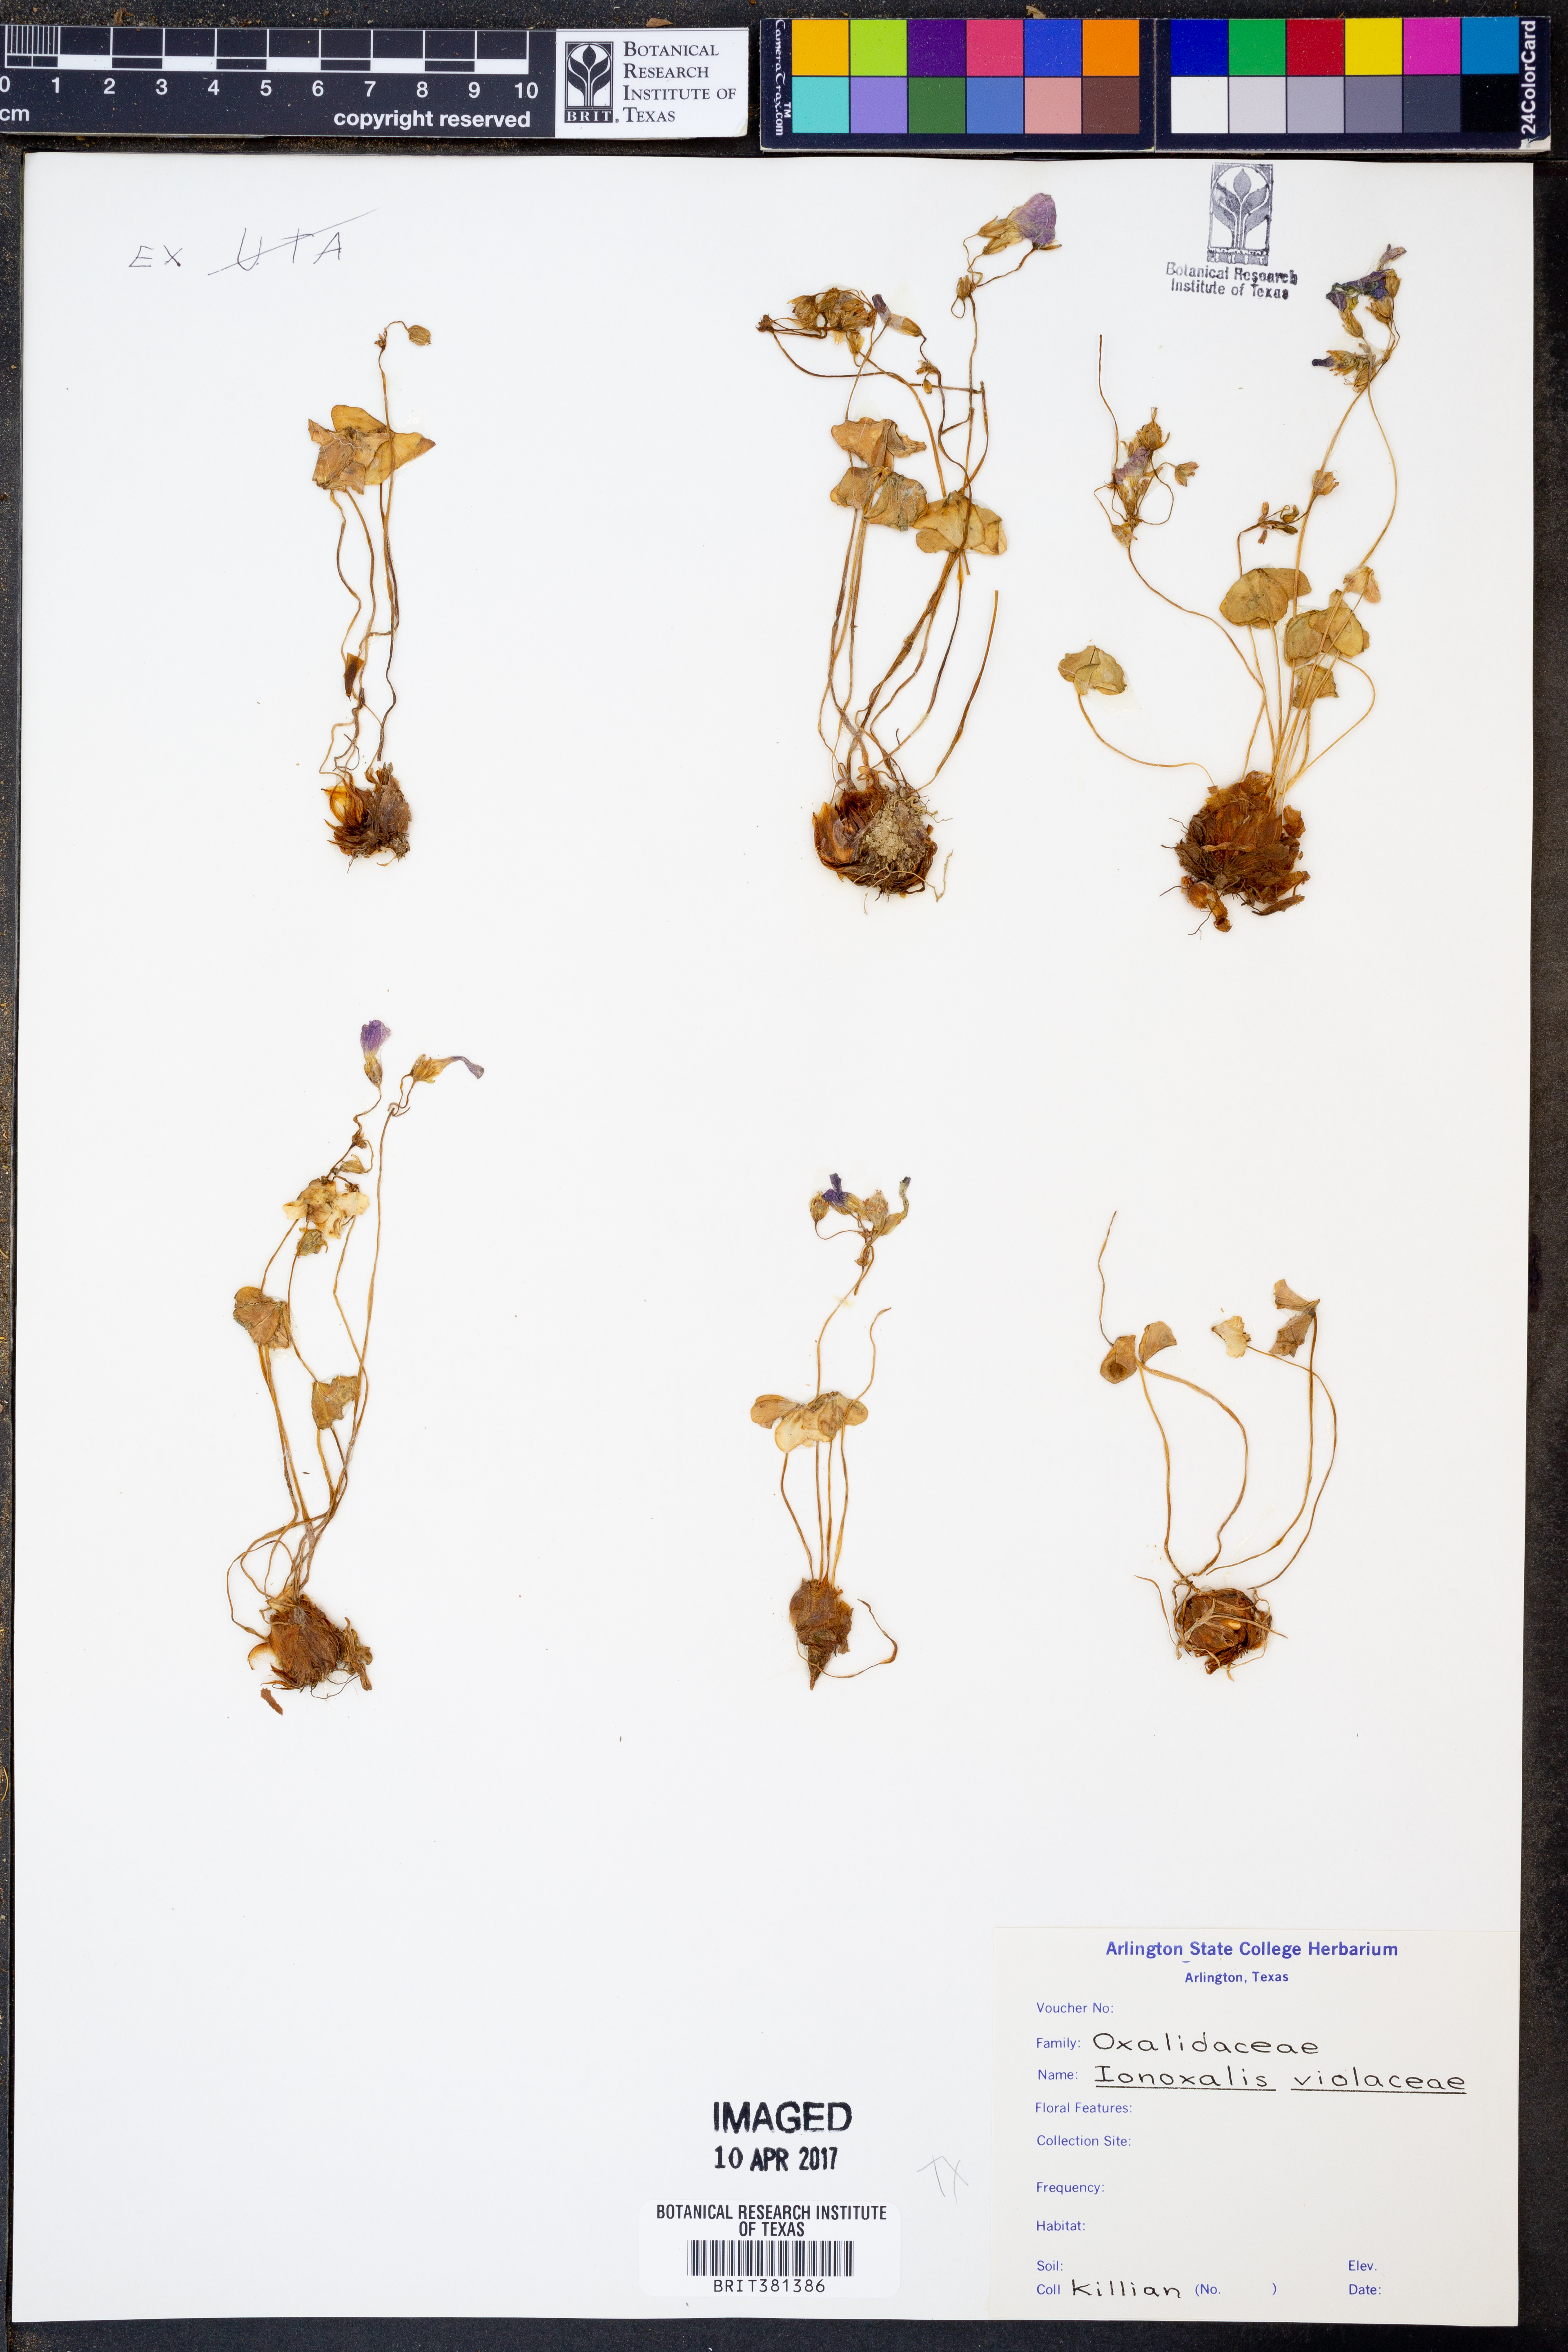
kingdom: Plantae
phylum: Tracheophyta
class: Magnoliopsida
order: Oxalidales
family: Oxalidaceae
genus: Oxalis
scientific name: Oxalis violacea
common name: Violet wood-sorrel
